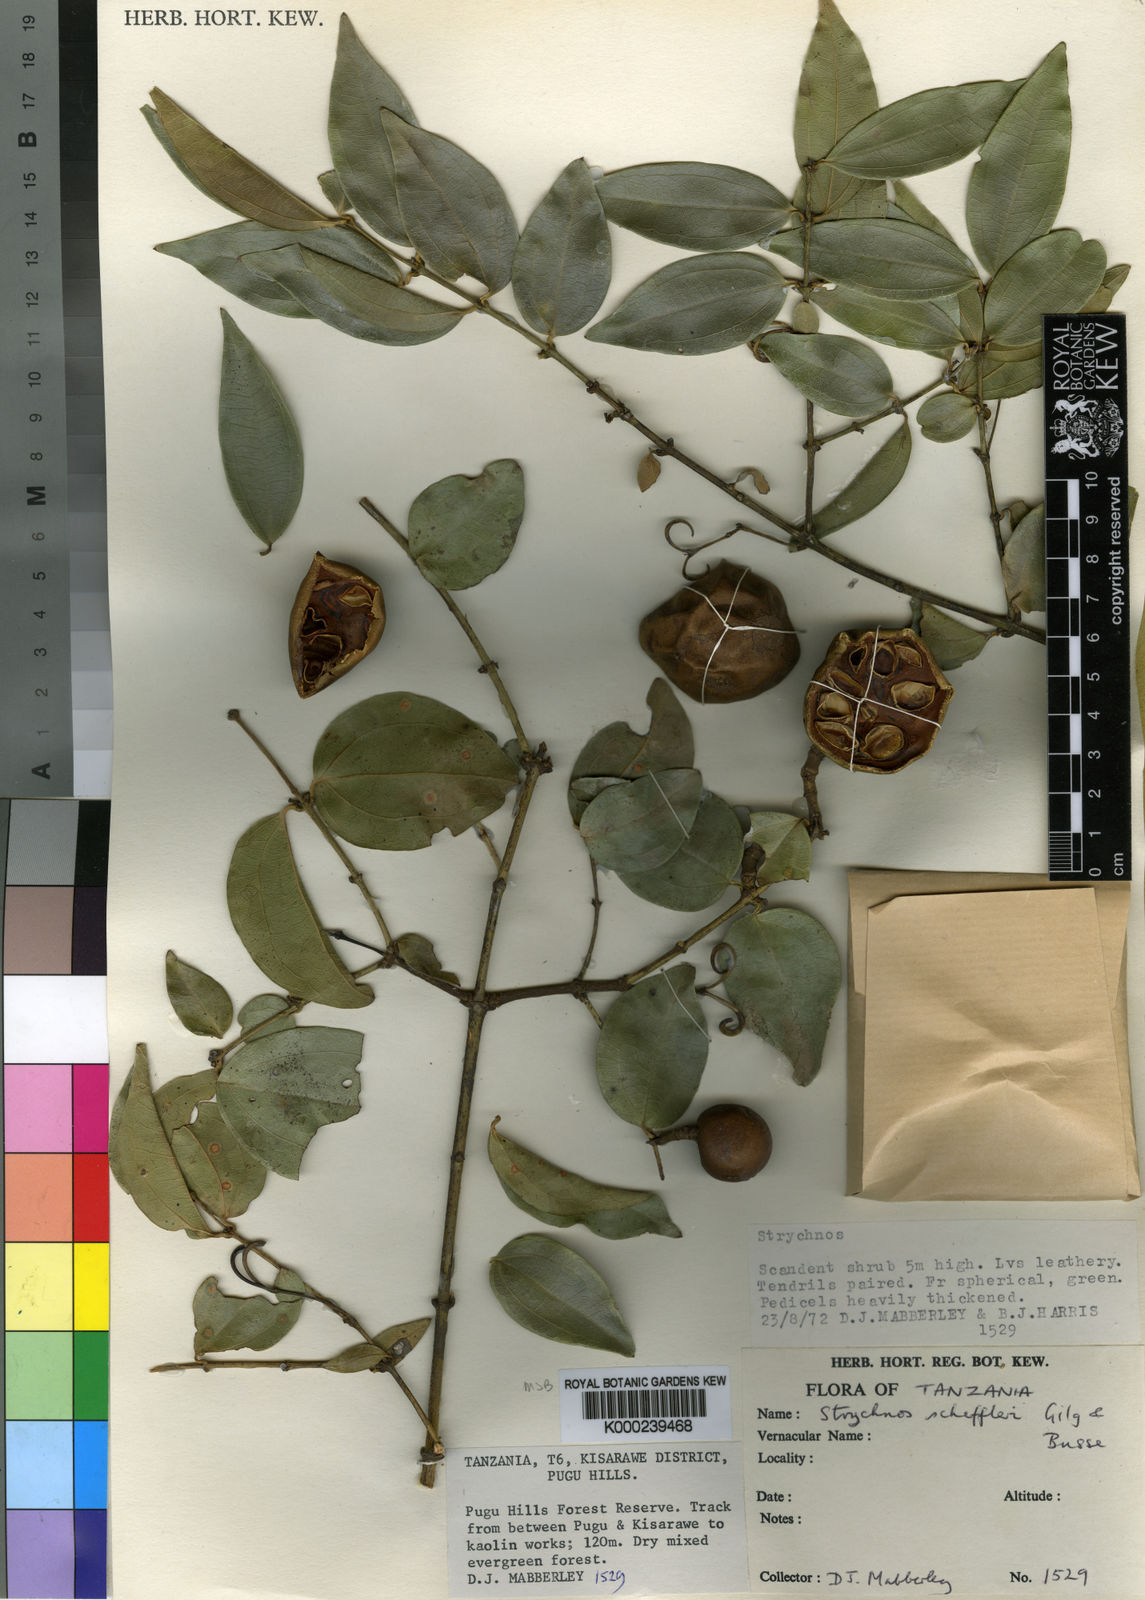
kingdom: Plantae
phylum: Tracheophyta
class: Magnoliopsida
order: Gentianales
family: Loganiaceae
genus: Strychnos
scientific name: Strychnos scheffleri
